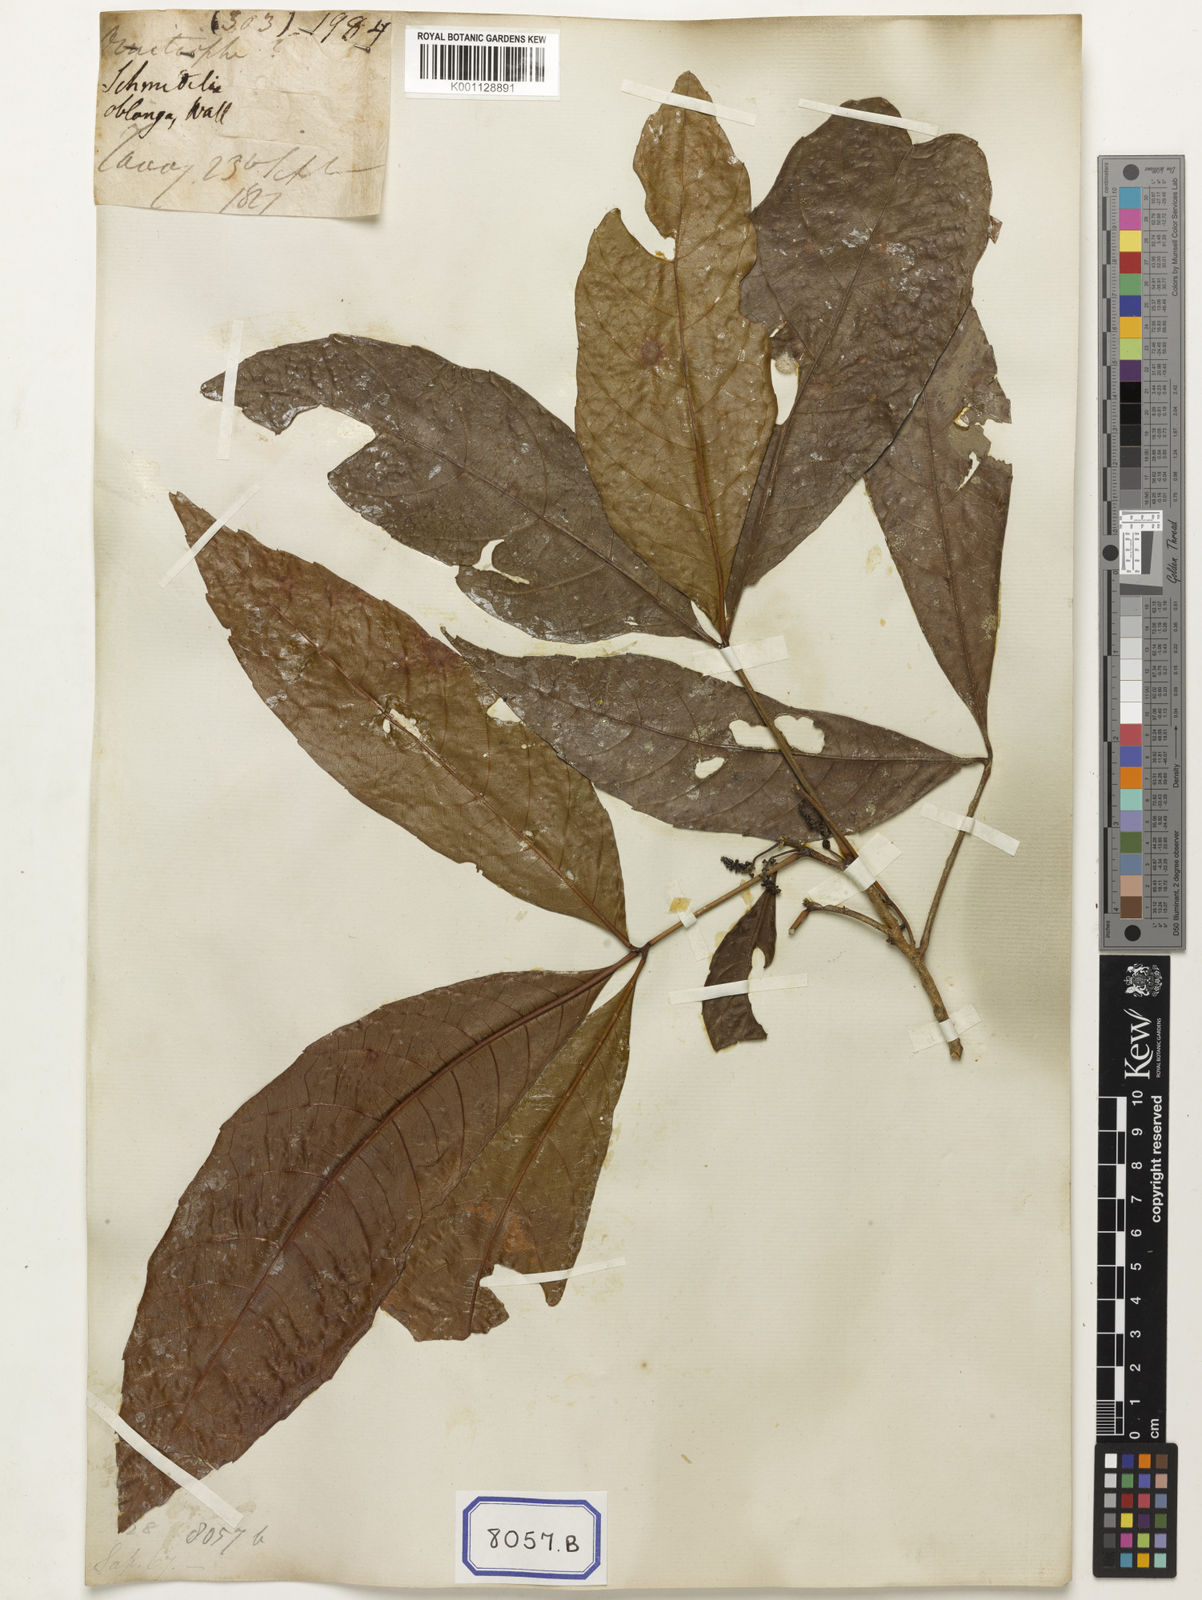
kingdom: Plantae
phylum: Tracheophyta
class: Magnoliopsida
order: Malpighiales
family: Calophyllaceae
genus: Calophyllum
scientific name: Calophyllum
